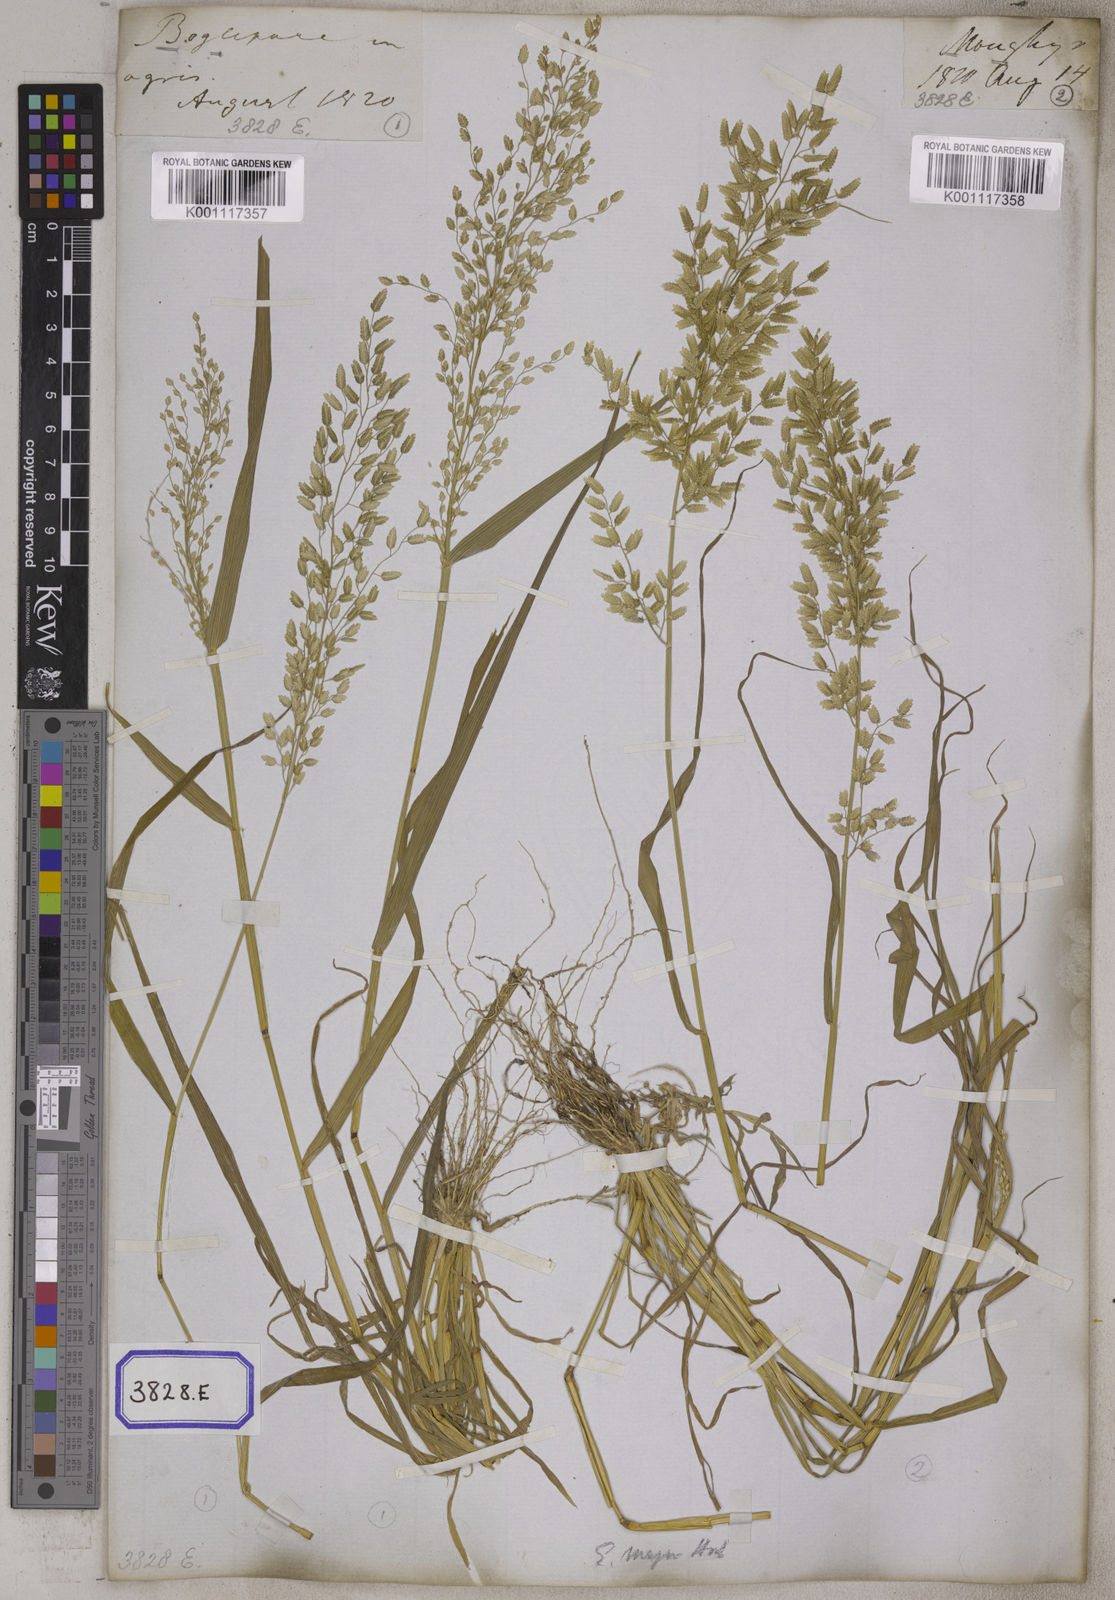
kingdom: Plantae
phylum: Tracheophyta
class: Liliopsida
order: Poales
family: Poaceae
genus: Eragrostis
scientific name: Eragrostis
